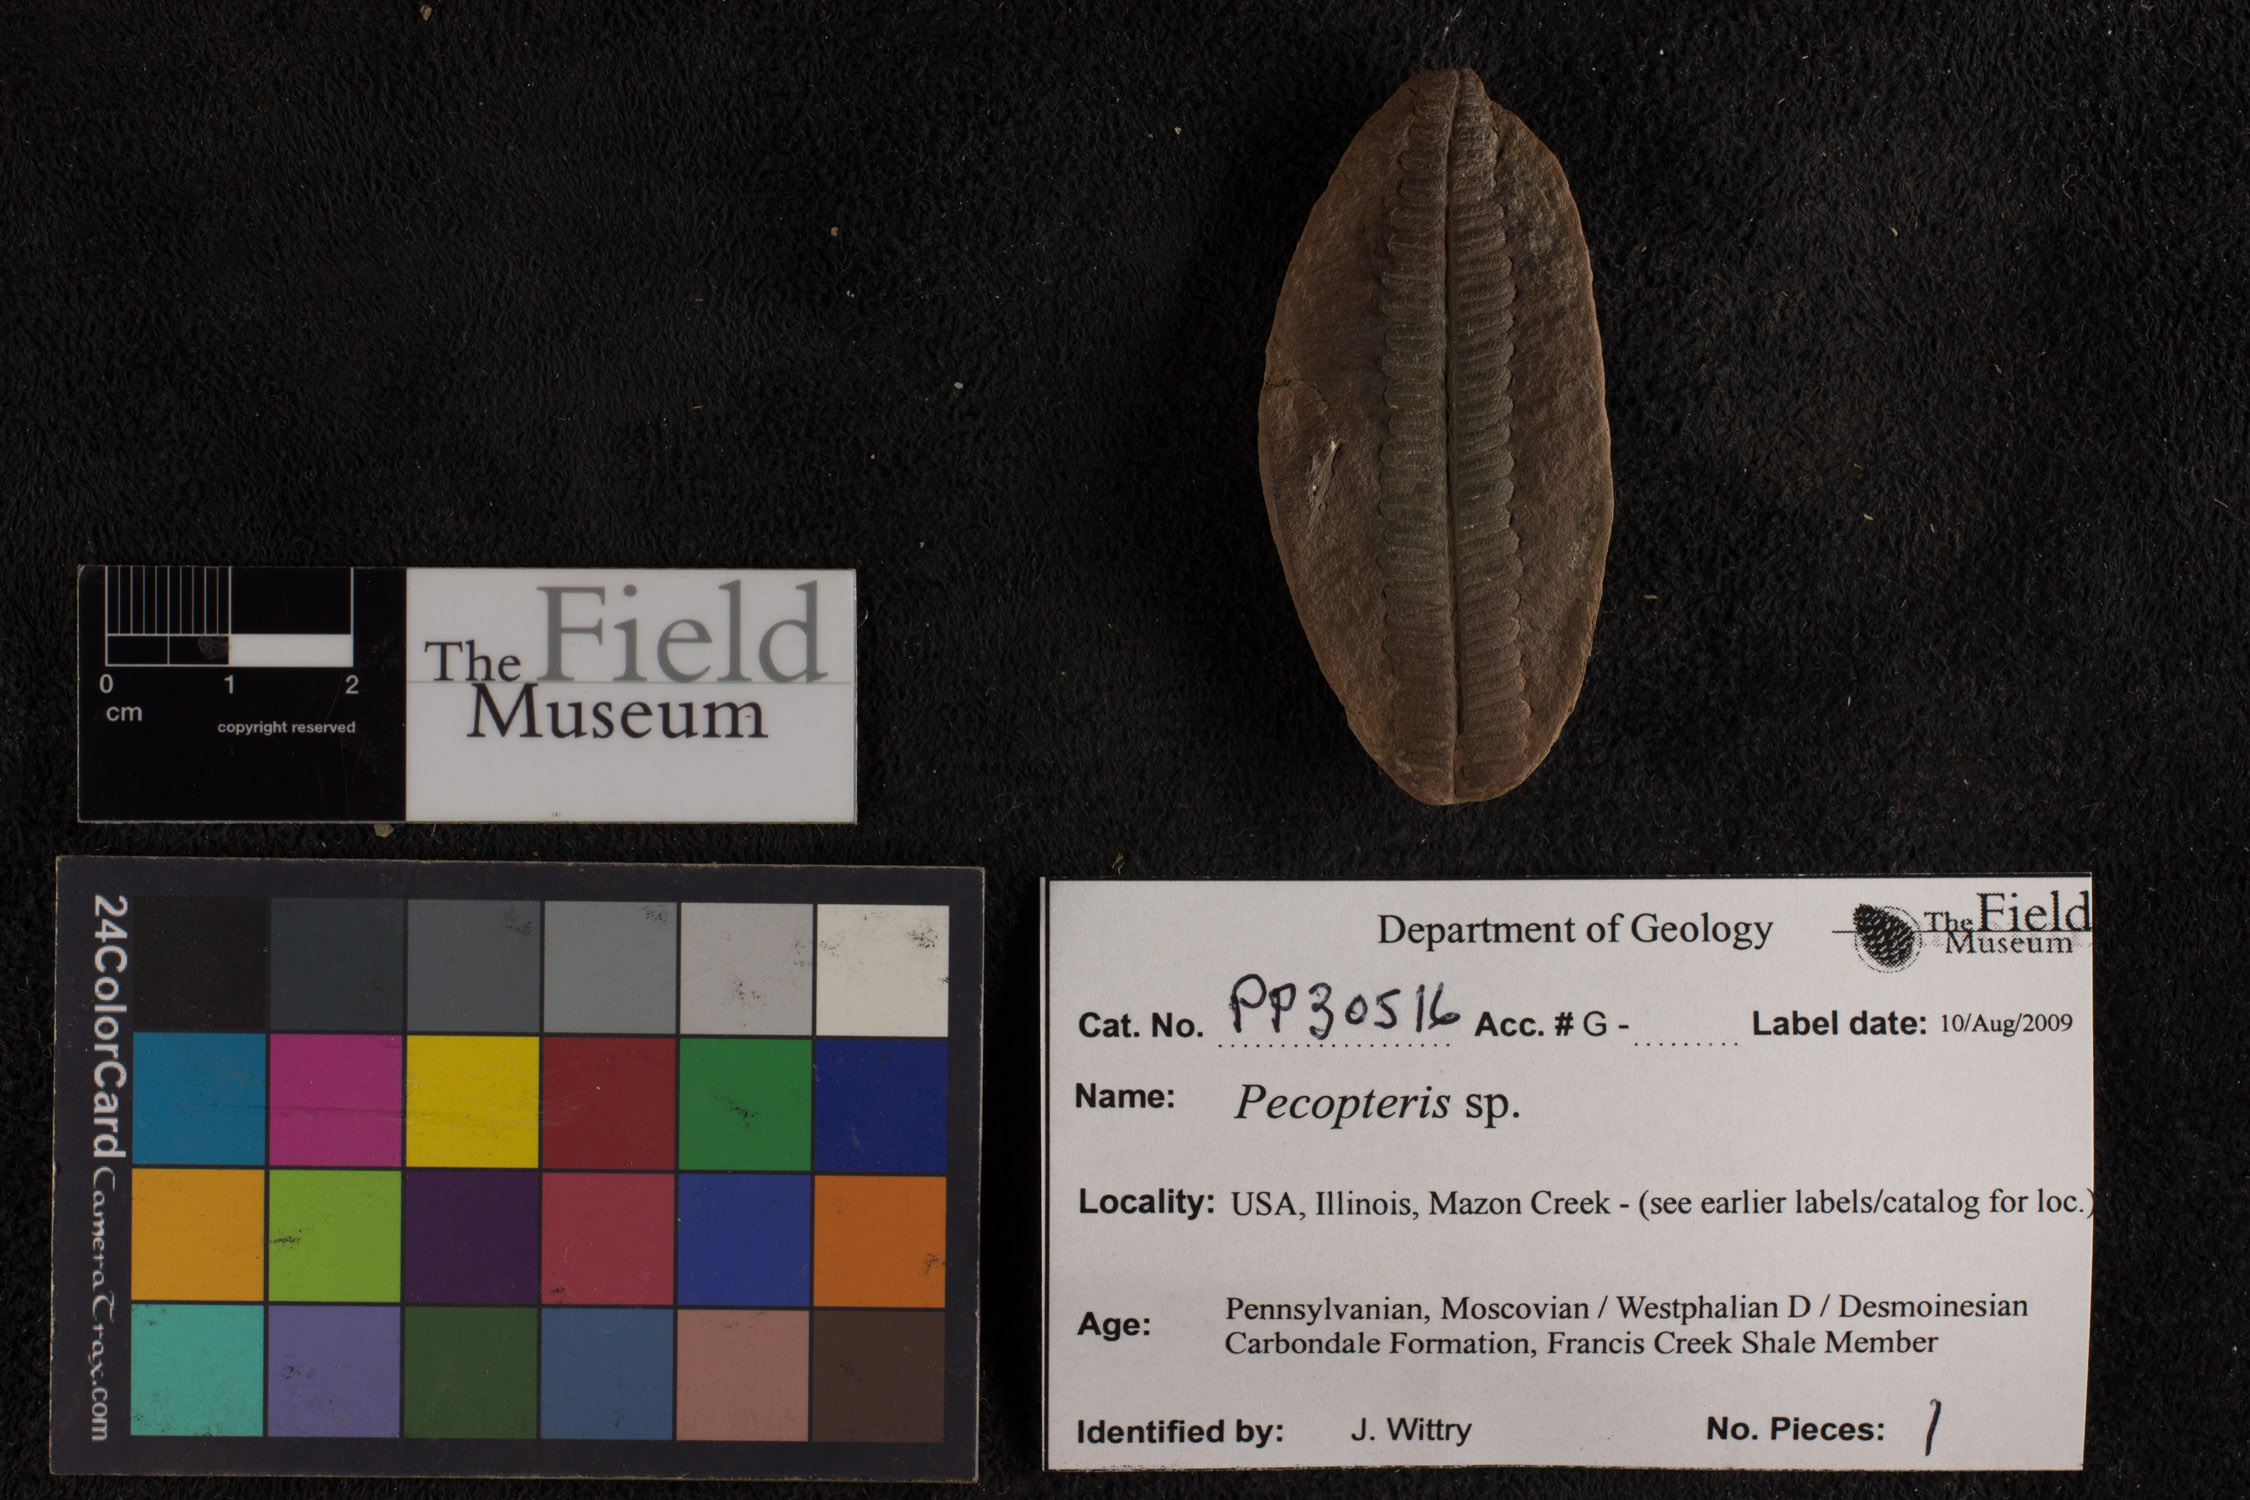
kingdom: Plantae
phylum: Tracheophyta
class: Polypodiopsida
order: Marattiales
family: Asterothecaceae
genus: Pecopteris
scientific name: Pecopteris
